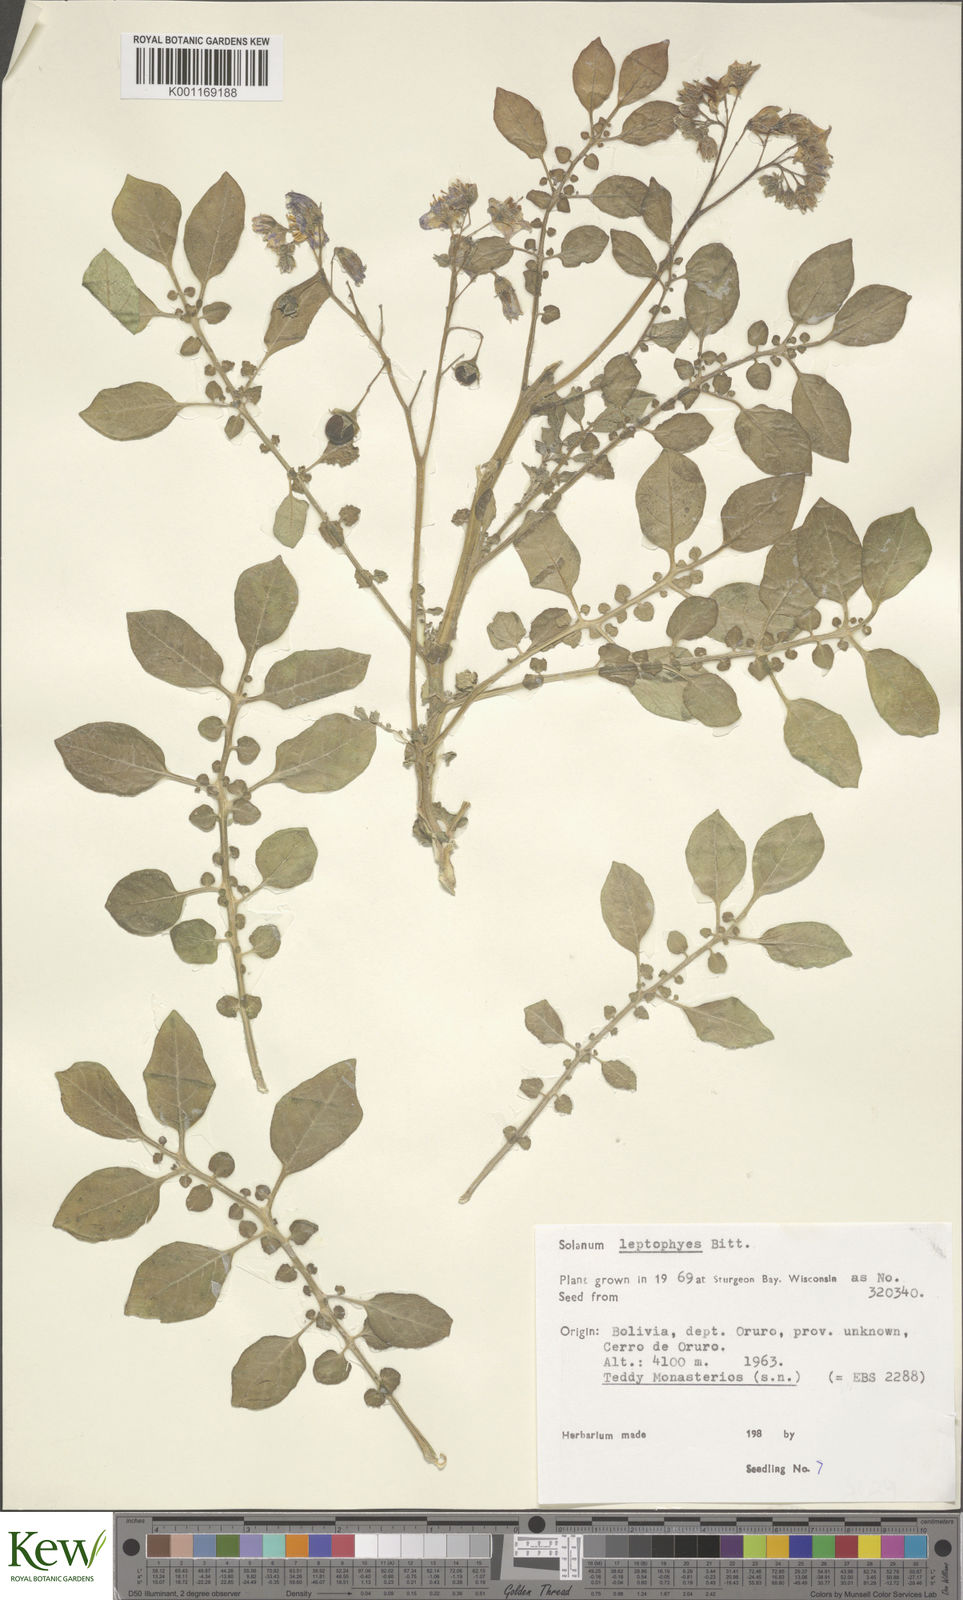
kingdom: Plantae
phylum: Tracheophyta
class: Magnoliopsida
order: Solanales
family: Solanaceae
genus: Solanum
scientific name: Solanum brevicaule
